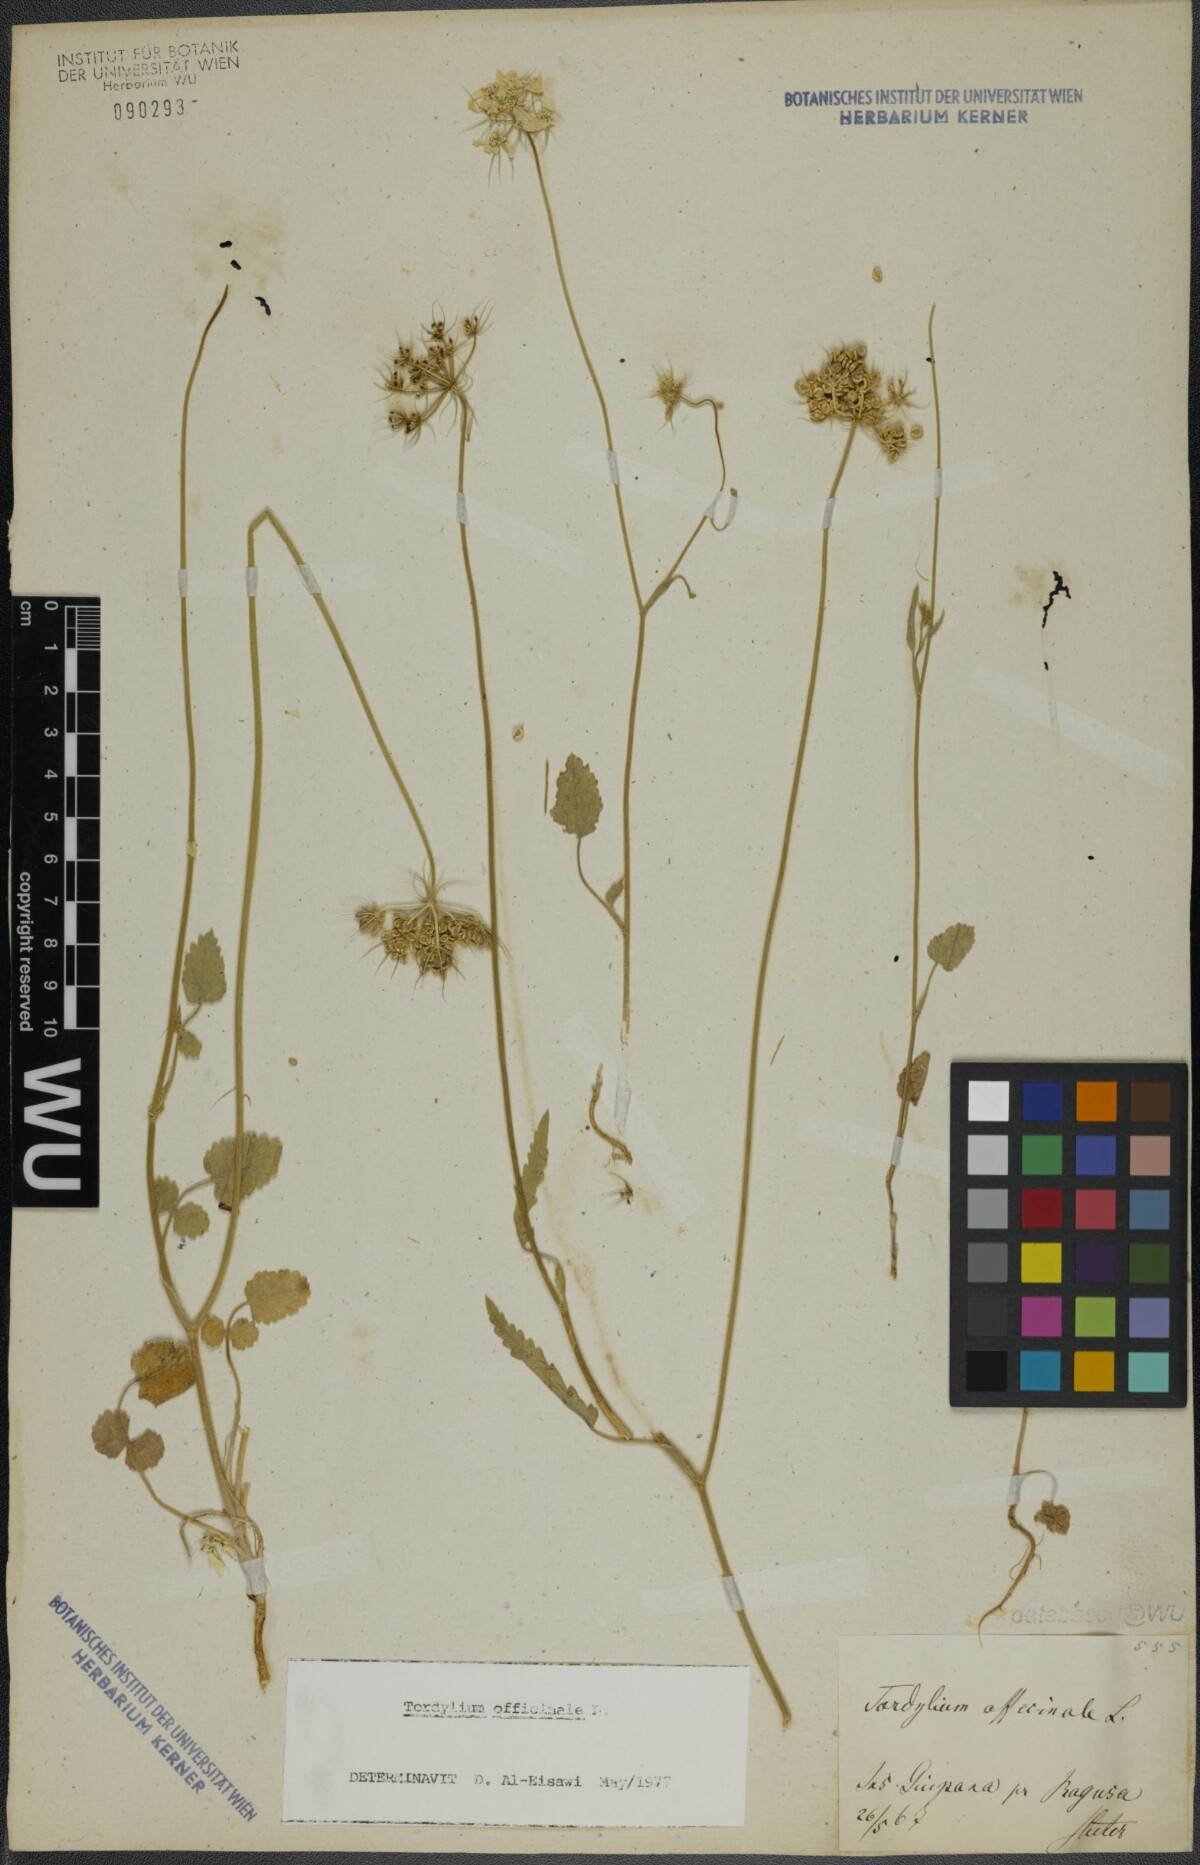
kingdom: Plantae
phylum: Tracheophyta
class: Magnoliopsida
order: Apiales
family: Apiaceae
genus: Tordylium
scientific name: Tordylium officinale
